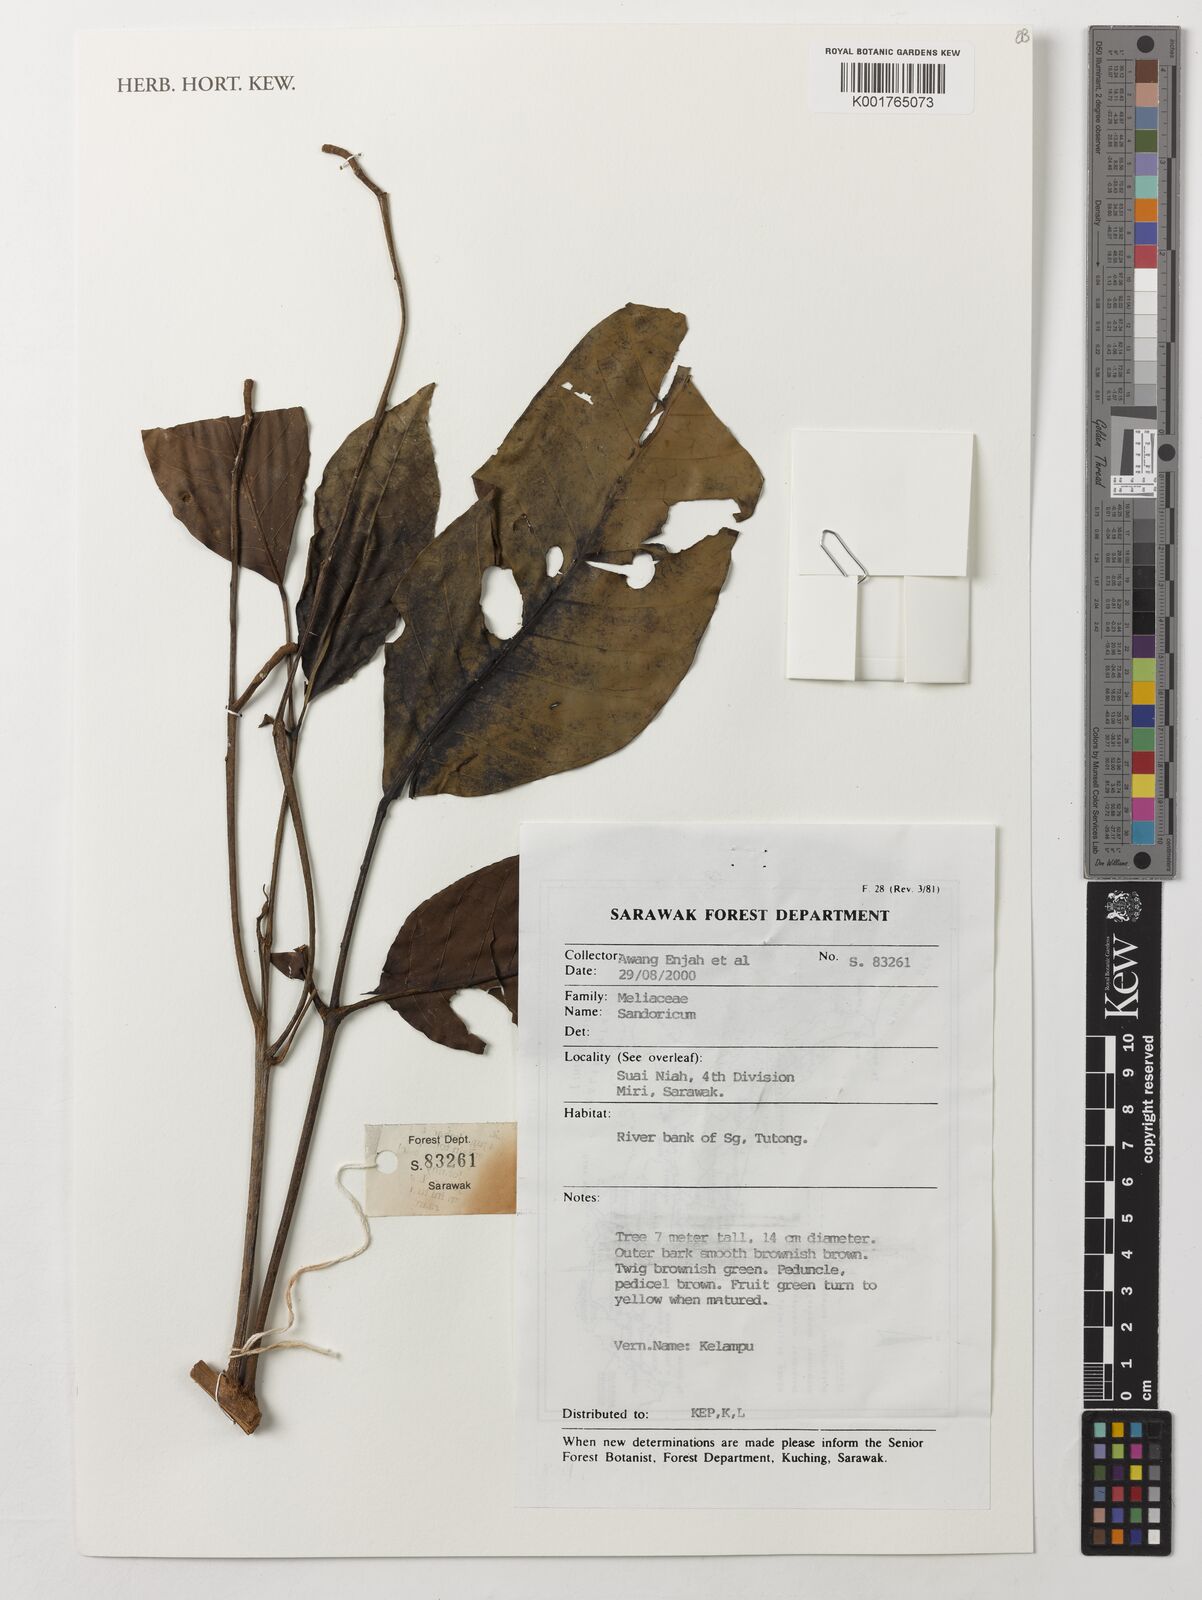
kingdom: Plantae
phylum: Tracheophyta
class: Magnoliopsida
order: Sapindales
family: Meliaceae
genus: Sandoricum
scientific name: Sandoricum
